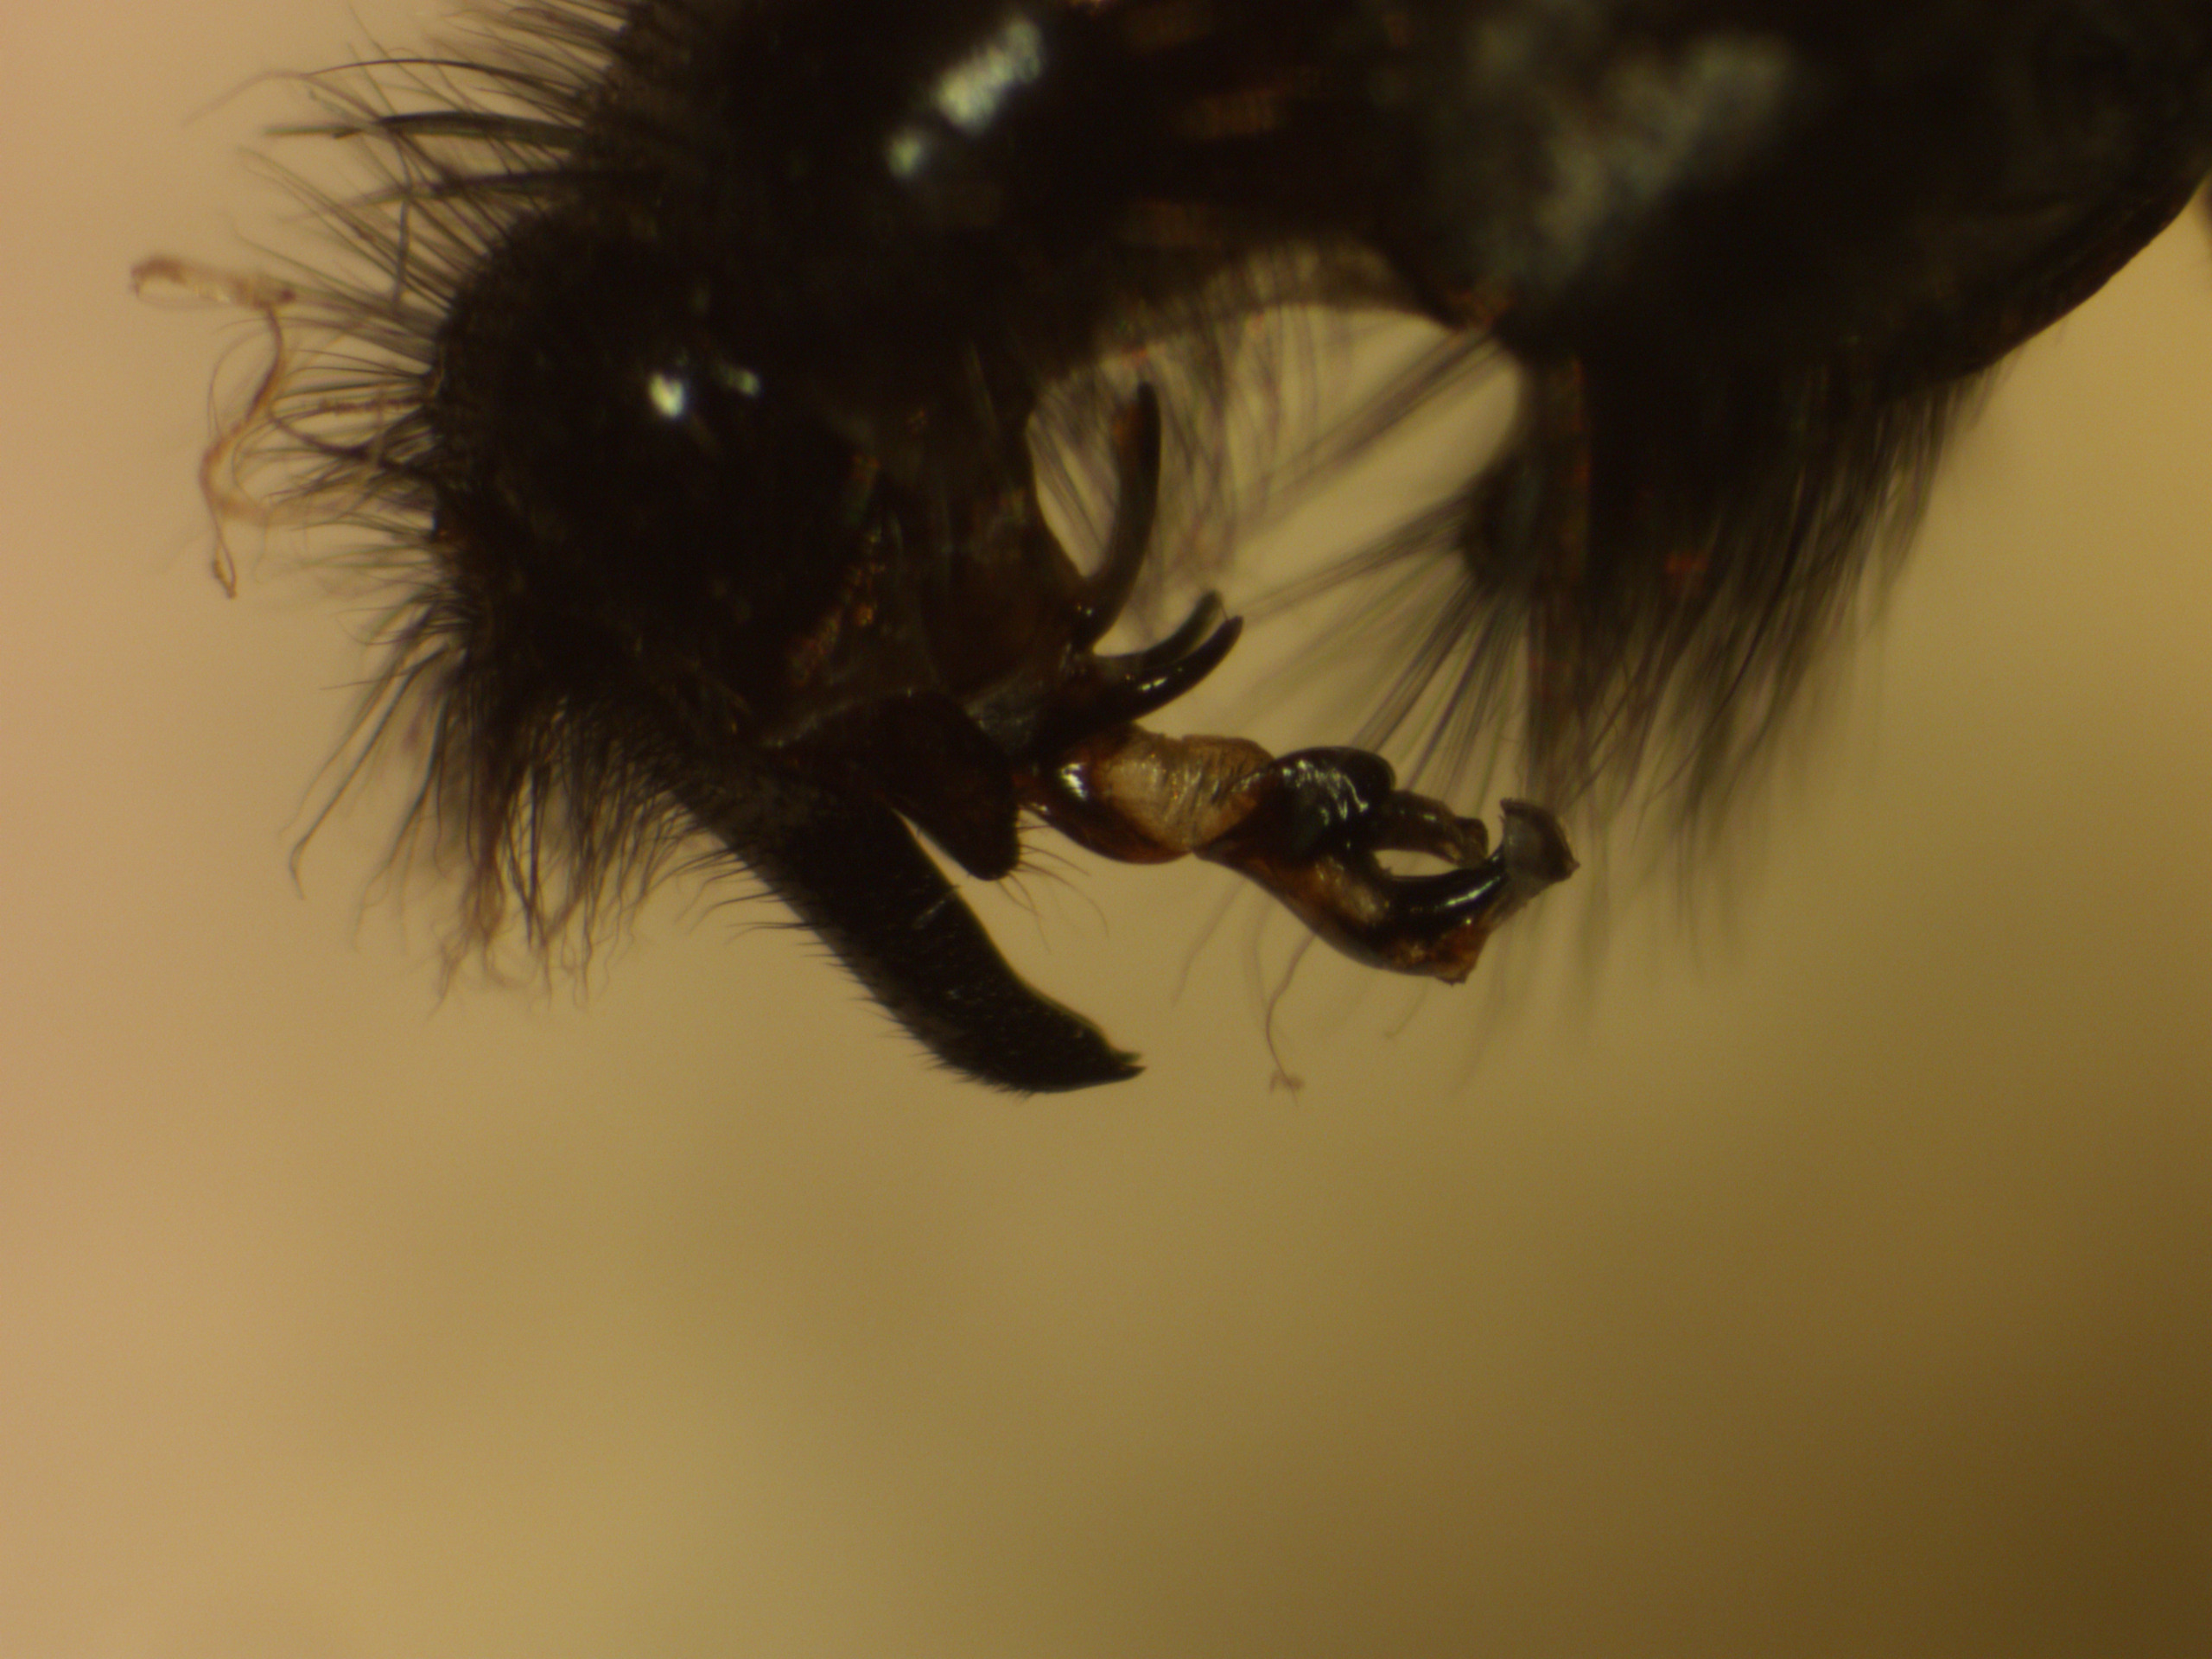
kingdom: Animalia
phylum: Arthropoda
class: Insecta
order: Diptera
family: Sarcophagidae
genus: Sarcophaga
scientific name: Sarcophaga variegata
